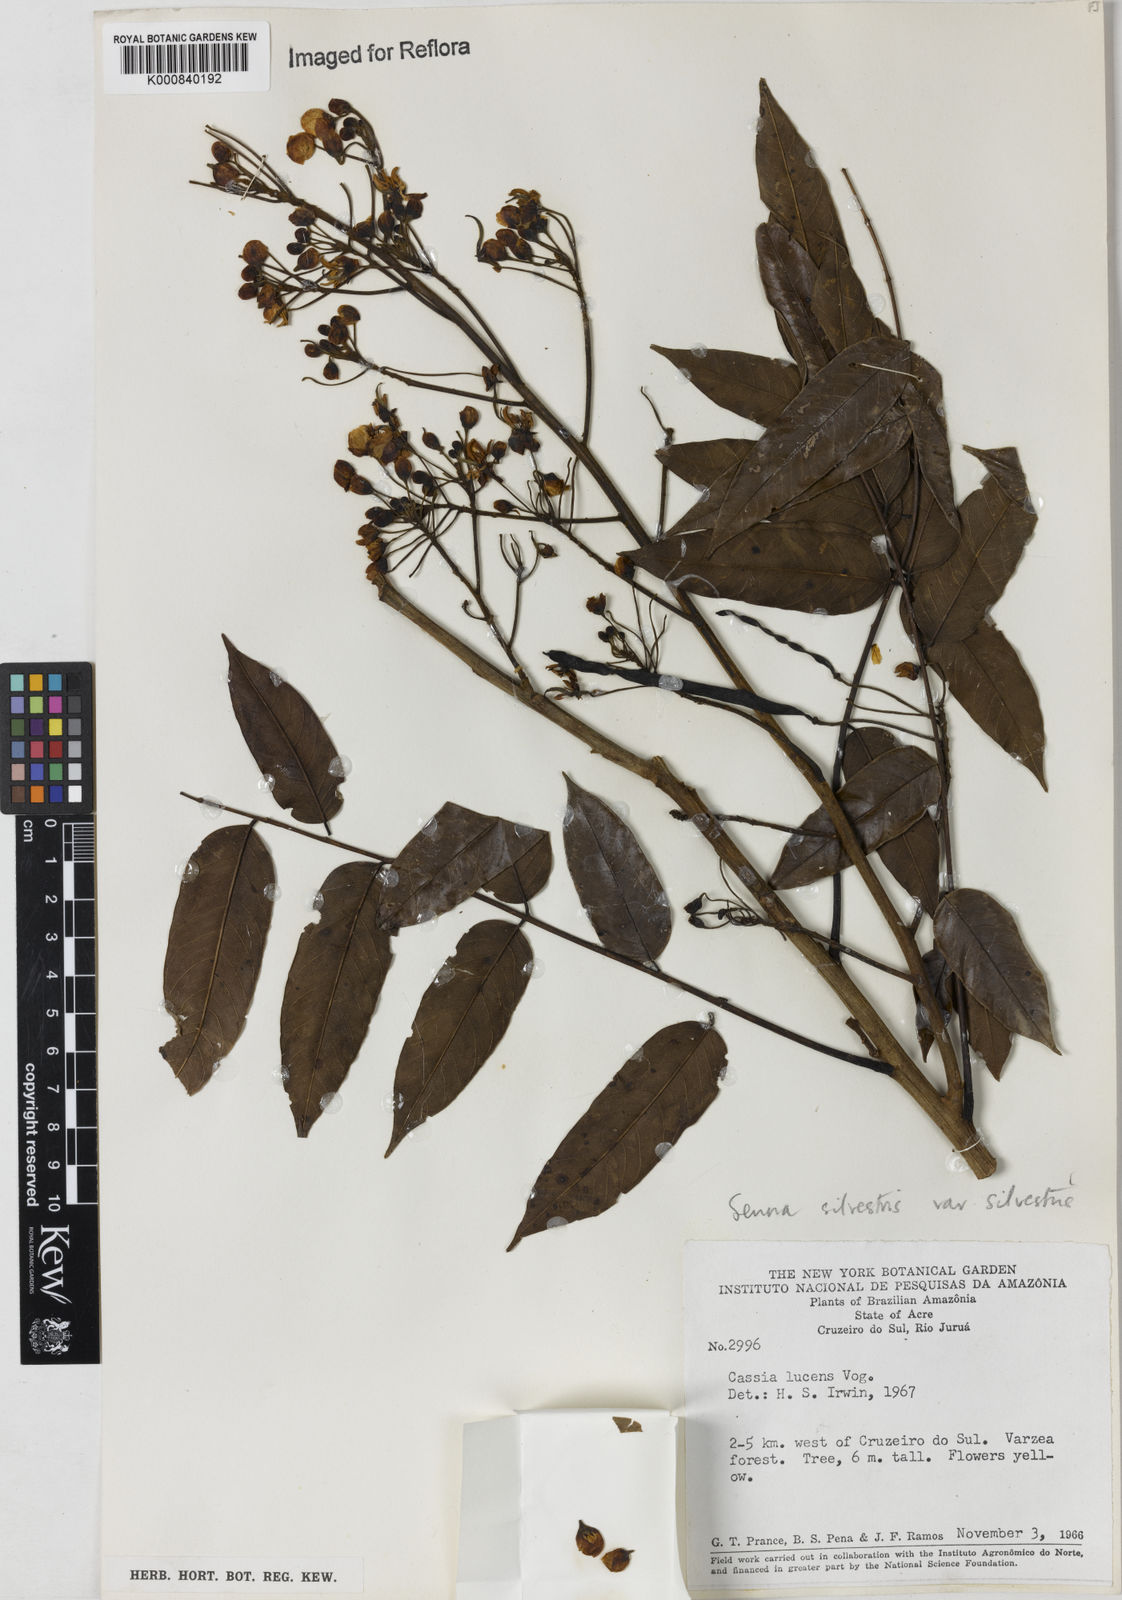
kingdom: Plantae
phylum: Tracheophyta
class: Magnoliopsida
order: Fabales
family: Fabaceae
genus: Senna
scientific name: Senna silvestris
